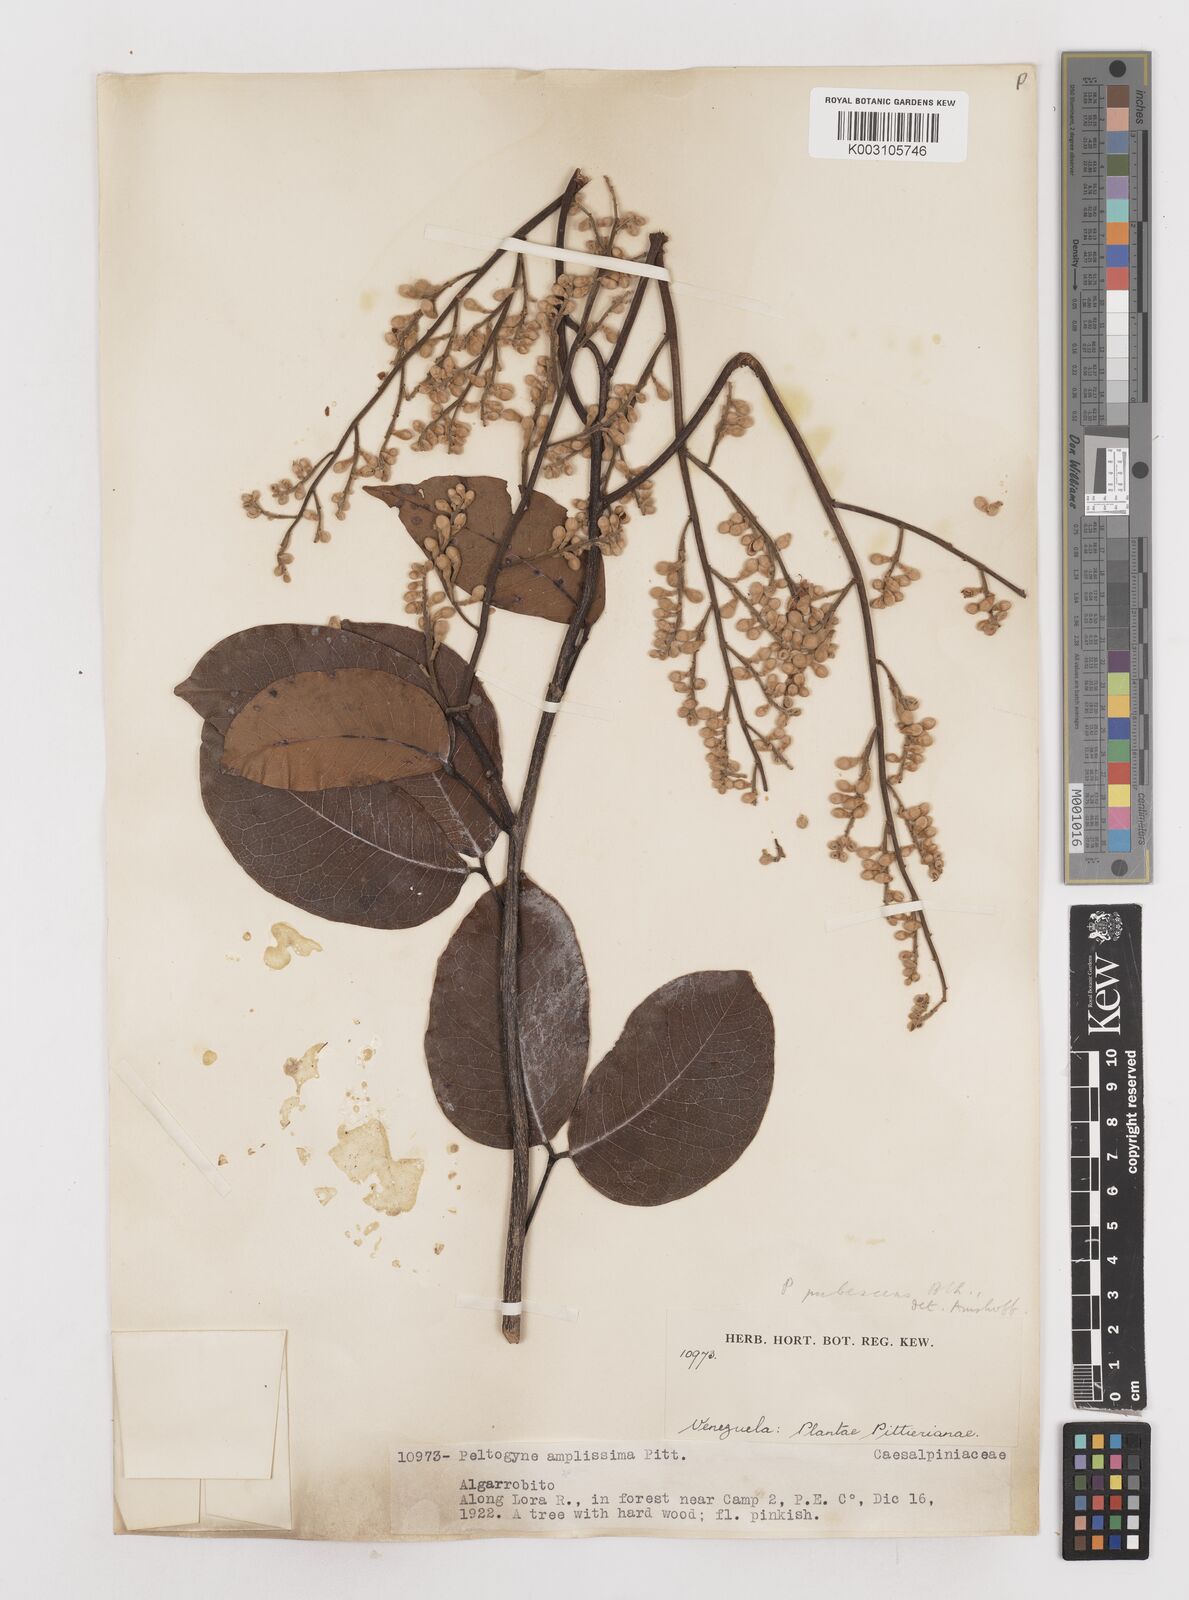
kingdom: Plantae
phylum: Tracheophyta
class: Magnoliopsida
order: Fabales
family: Fabaceae
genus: Peltogyne
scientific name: Peltogyne paniculata
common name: Purpleheart
